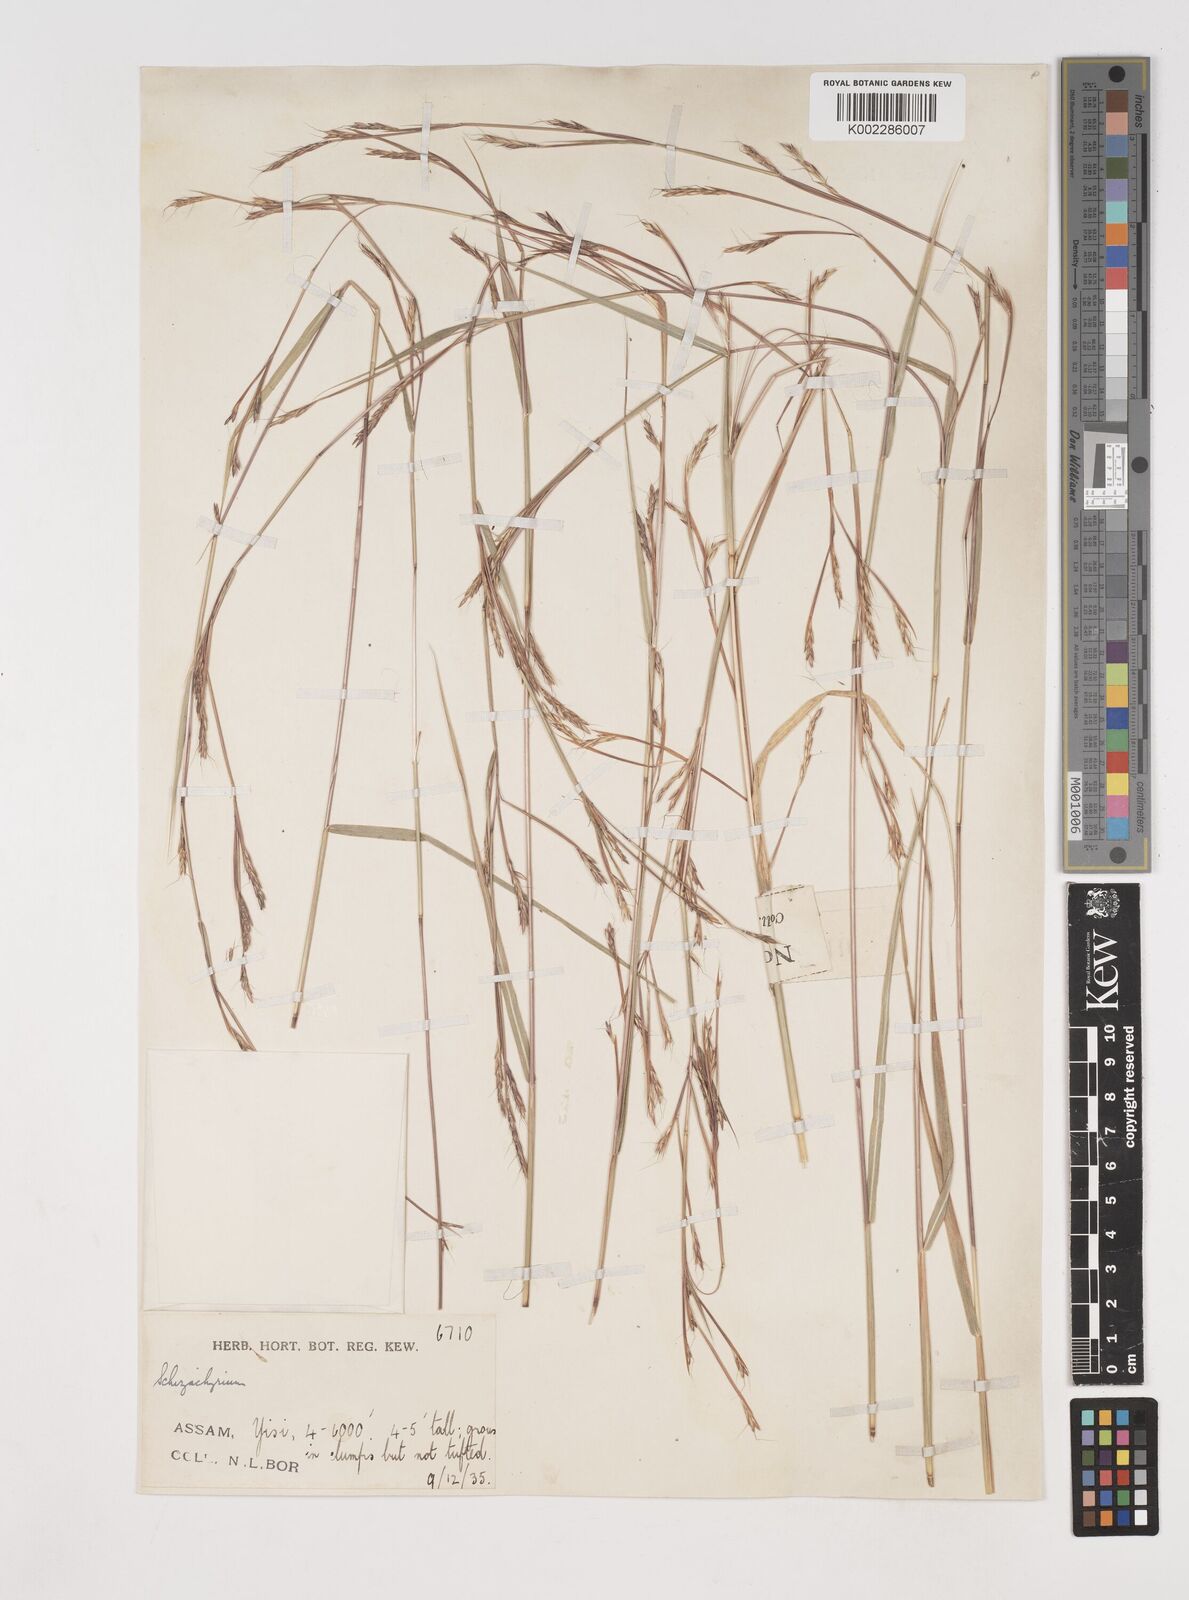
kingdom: Plantae
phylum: Tracheophyta
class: Liliopsida
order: Poales
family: Poaceae
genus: Schizachyrium
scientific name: Schizachyrium delavayi
